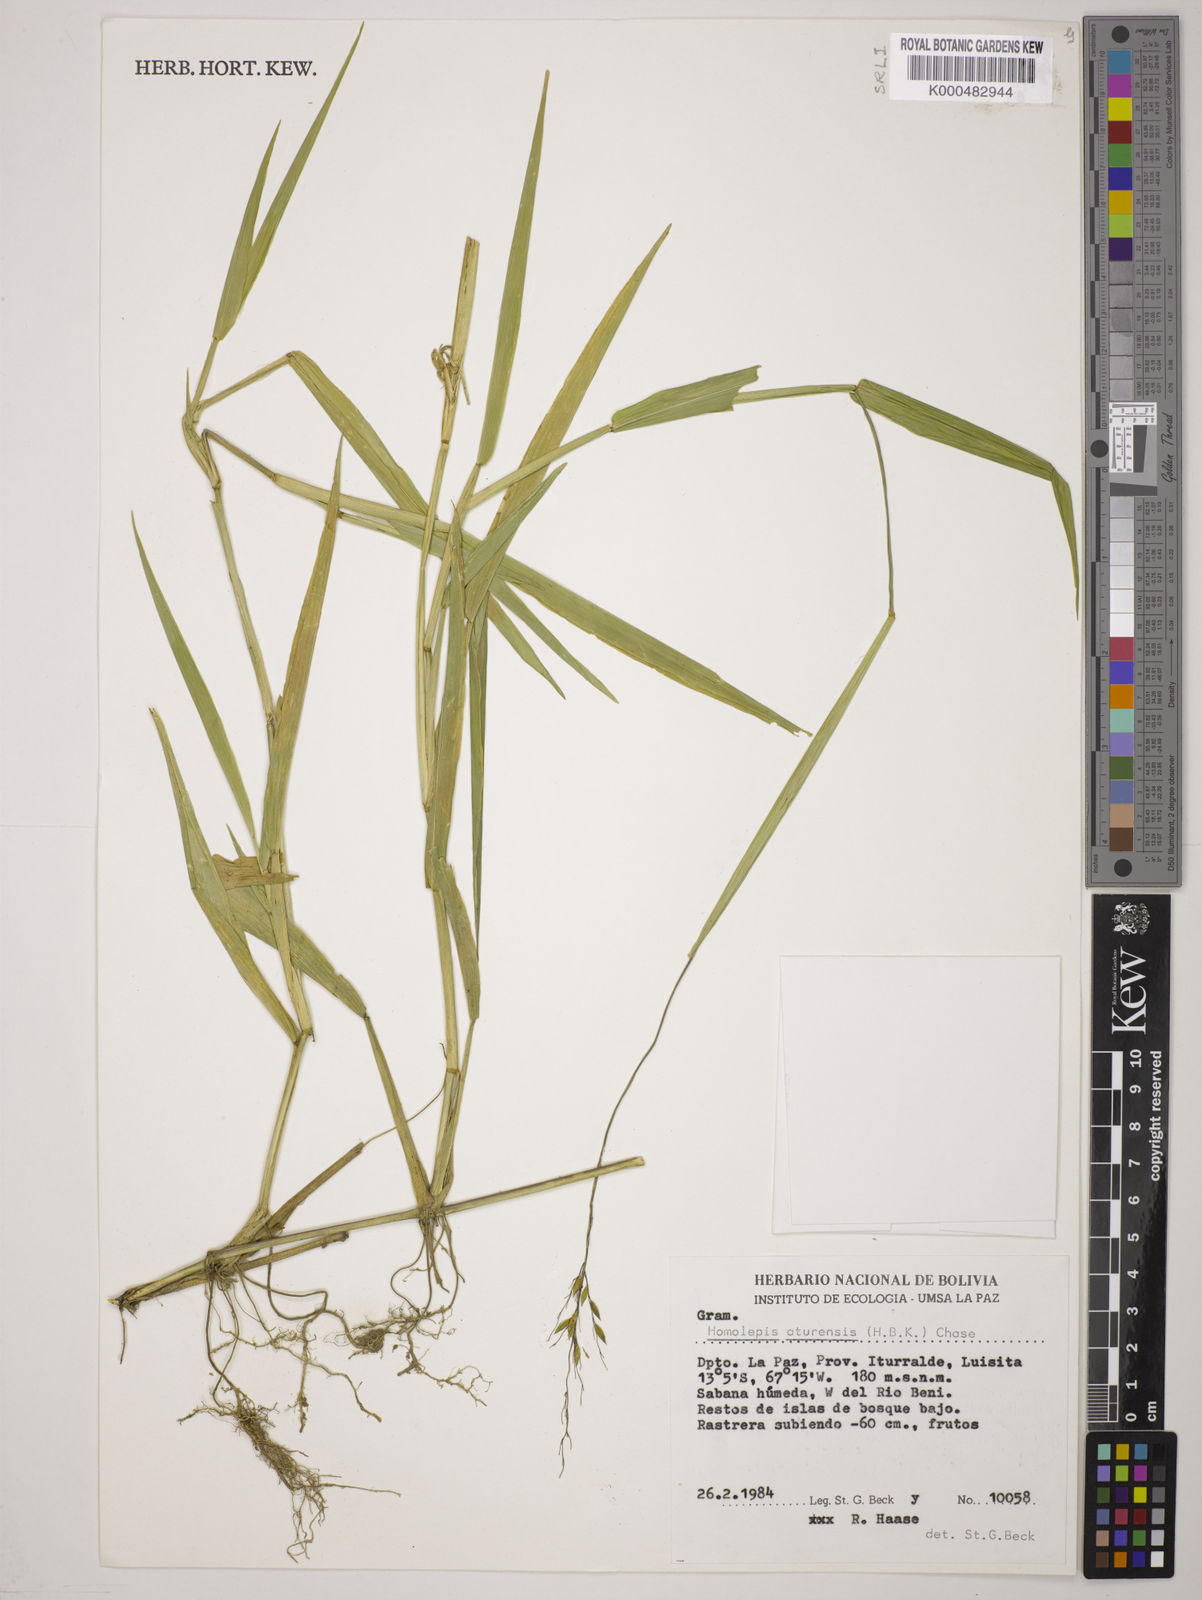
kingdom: Plantae
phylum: Tracheophyta
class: Liliopsida
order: Poales
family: Poaceae
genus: Homolepis
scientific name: Homolepis aturensis
